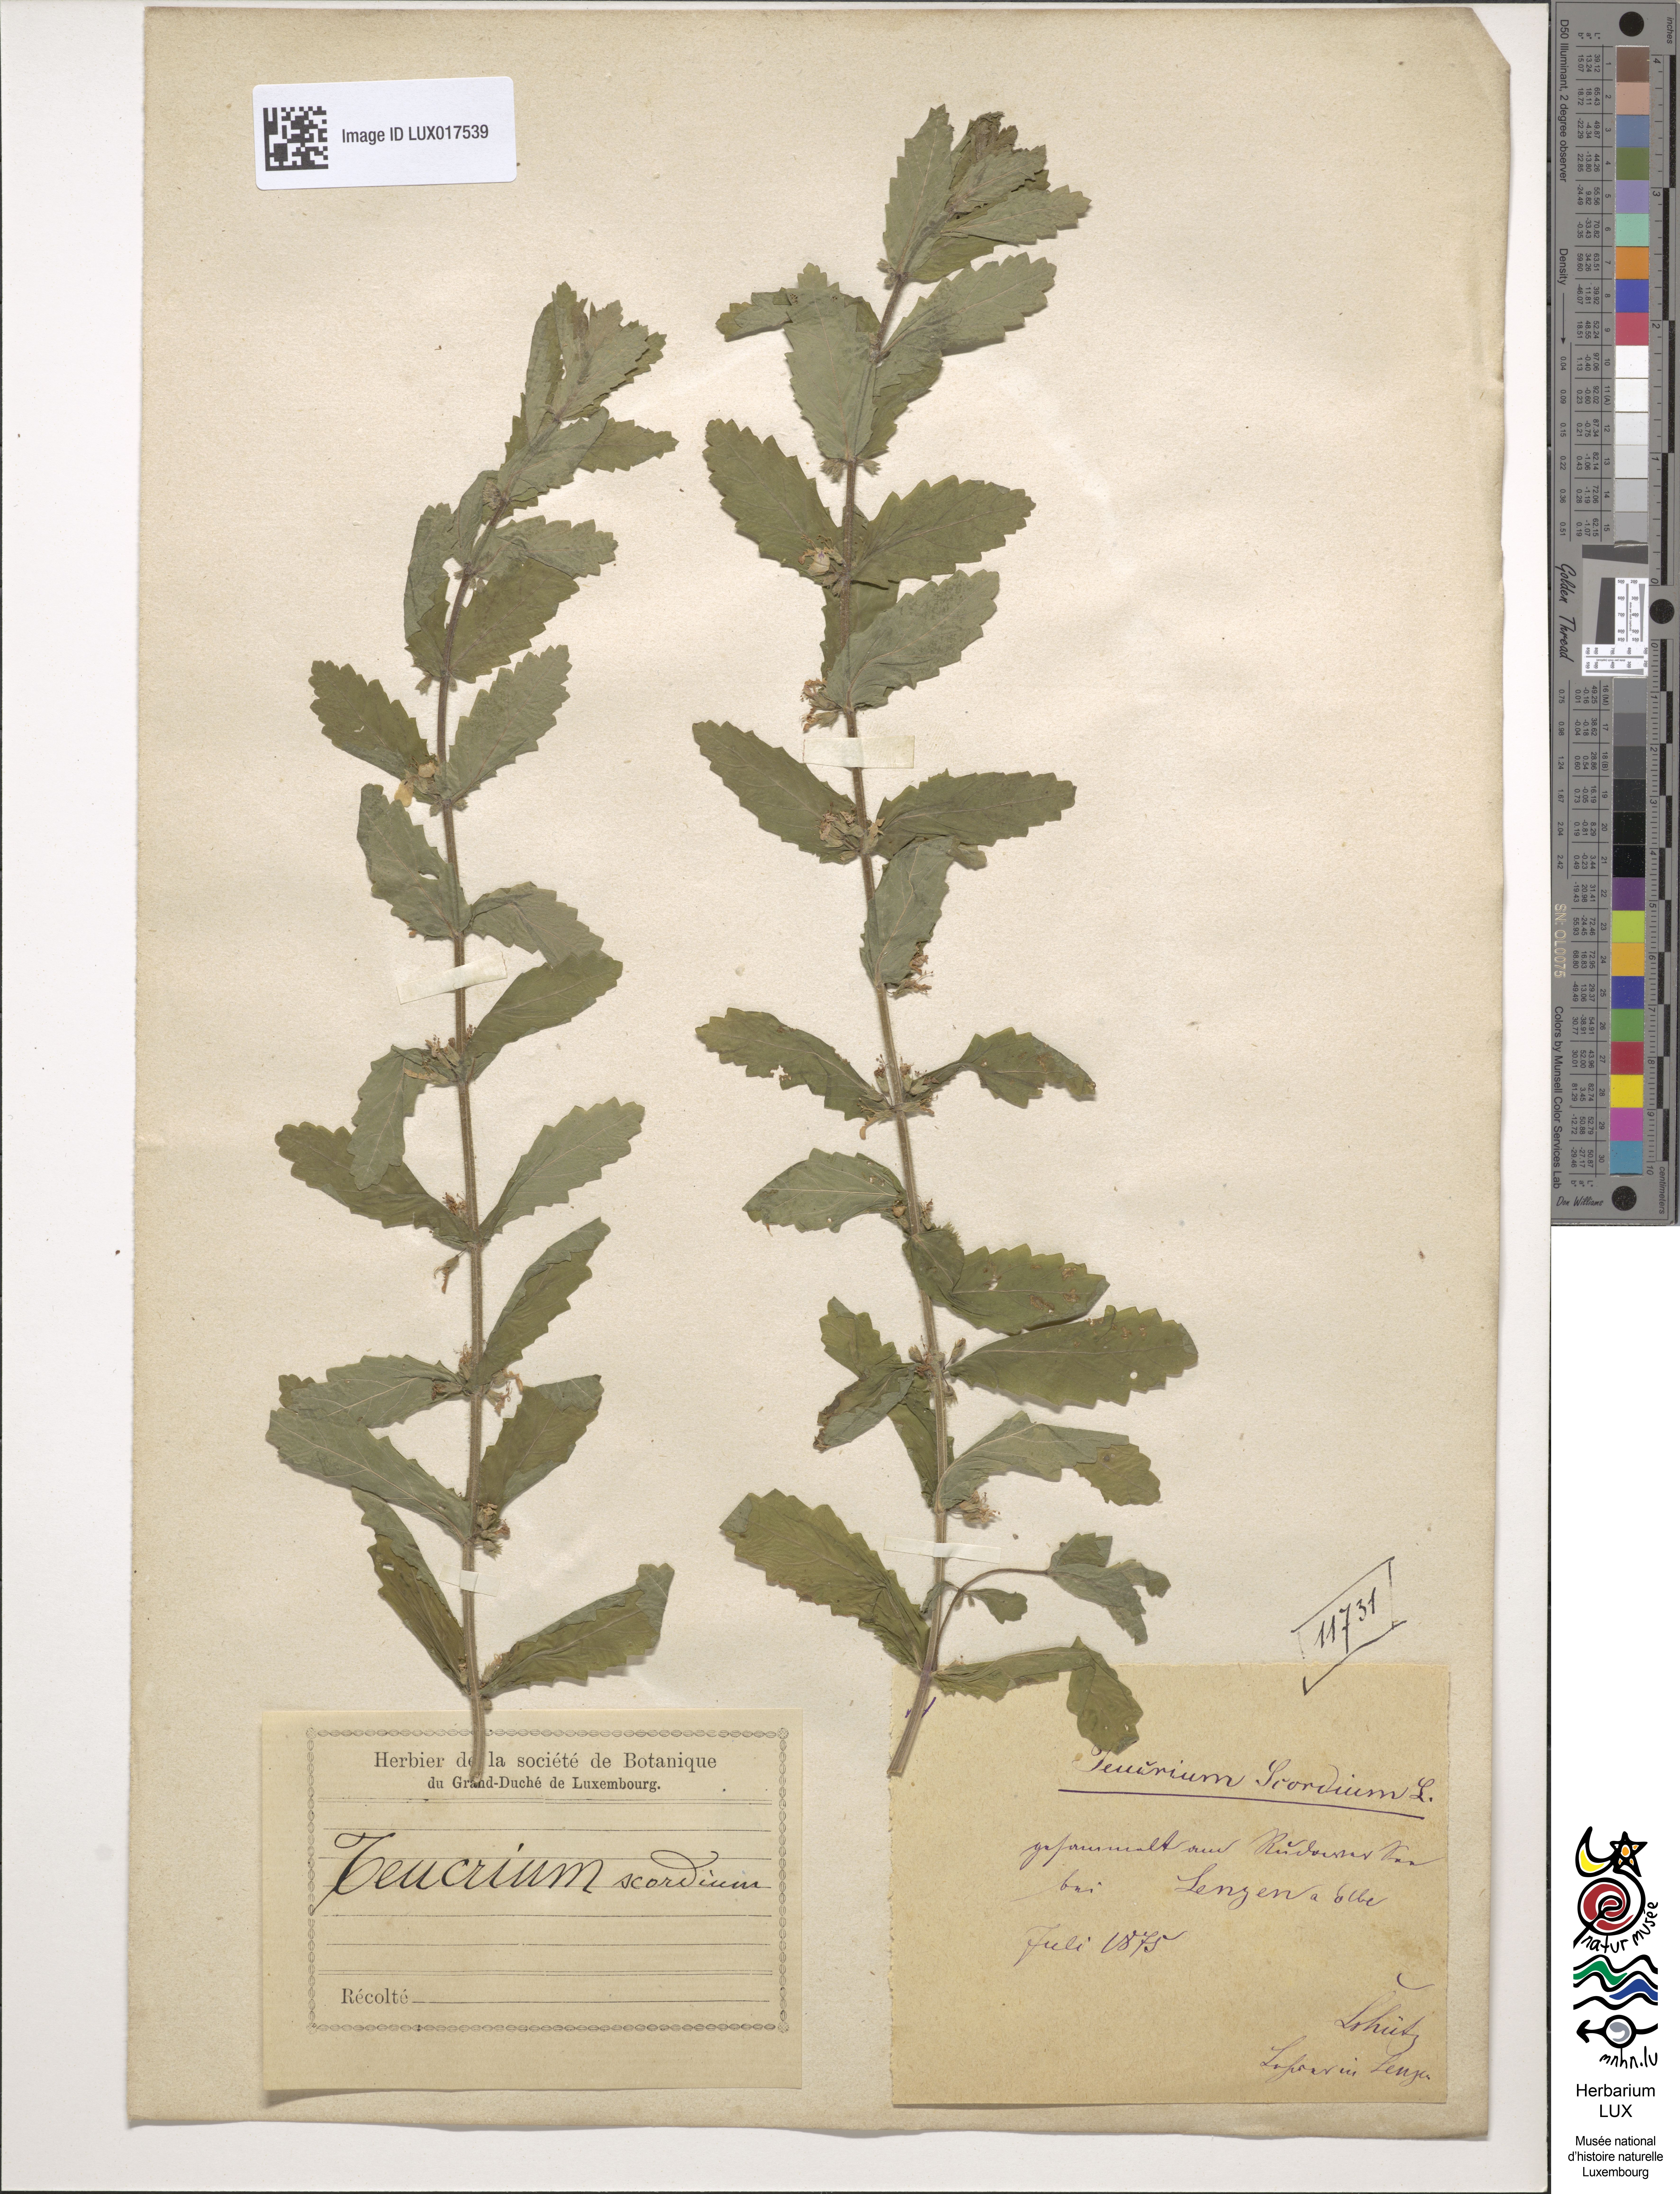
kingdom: Plantae
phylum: Tracheophyta
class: Magnoliopsida
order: Lamiales
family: Lamiaceae
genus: Teucrium
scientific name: Teucrium scordium
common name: Water germander
